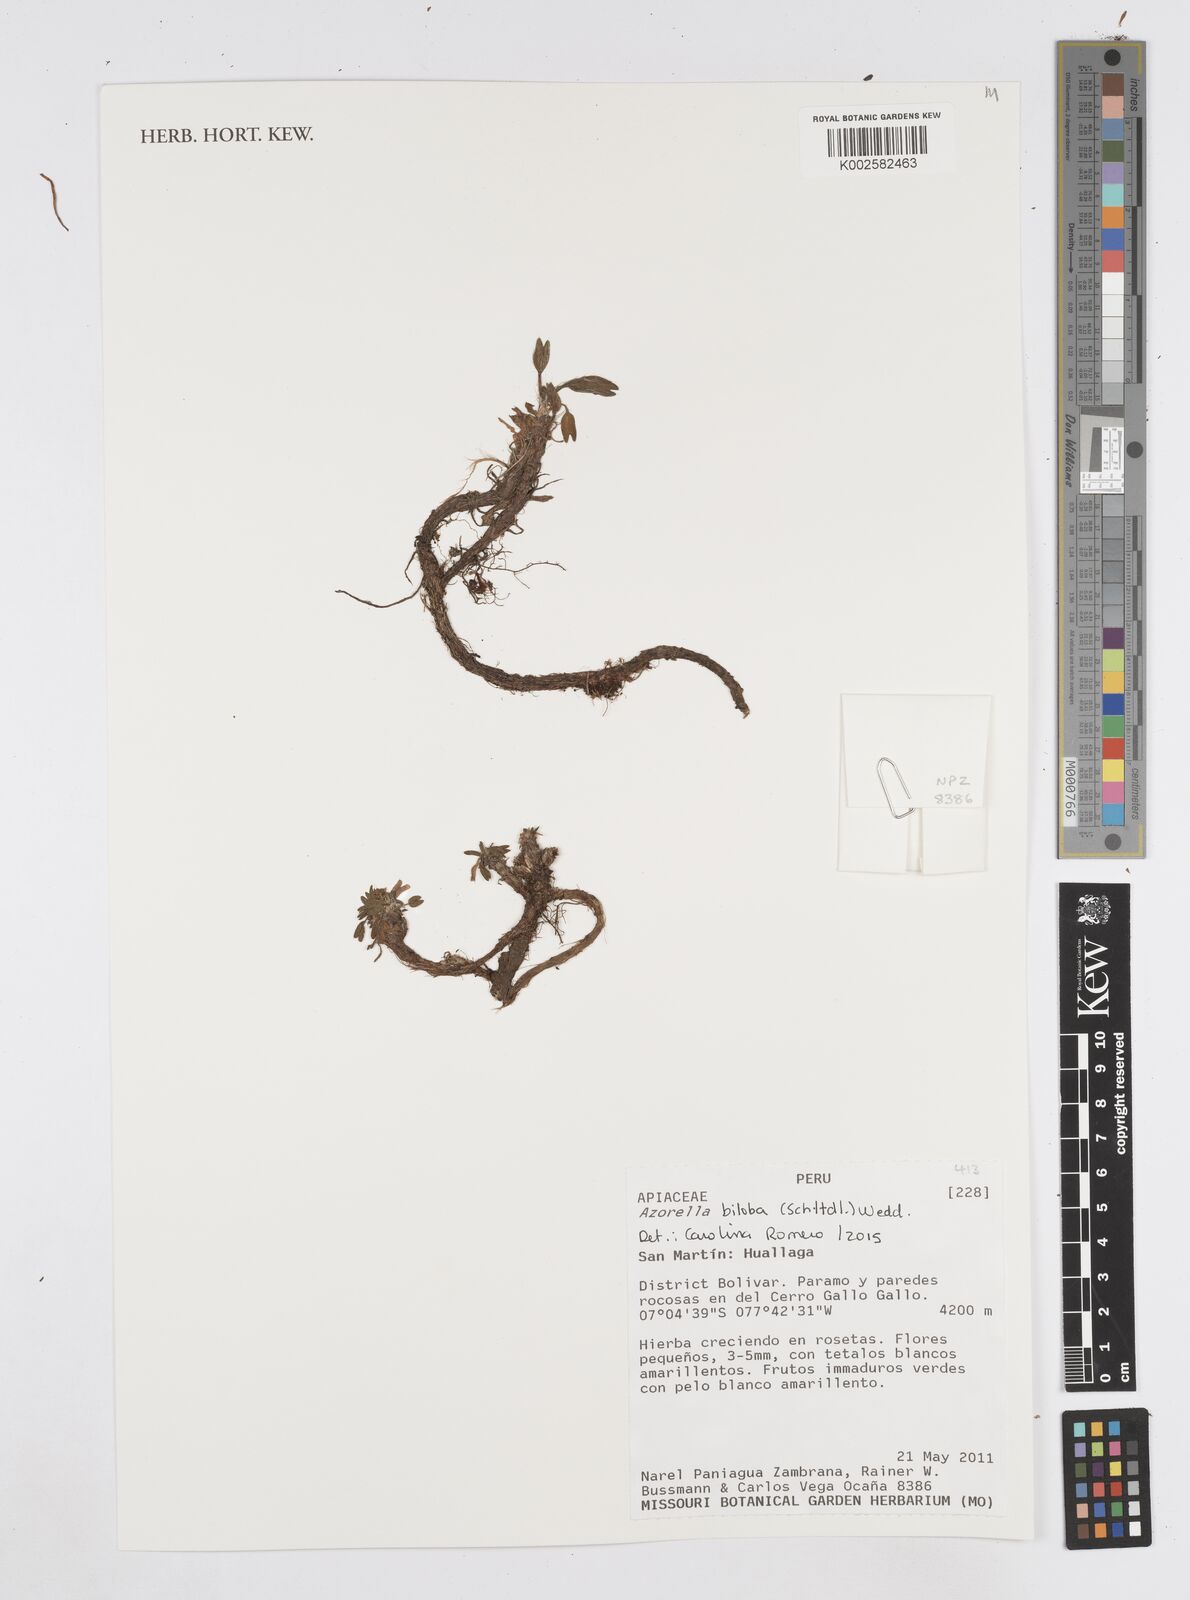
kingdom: Plantae
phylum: Tracheophyta
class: Magnoliopsida
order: Apiales
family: Apiaceae
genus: Azorella
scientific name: Azorella biloba
